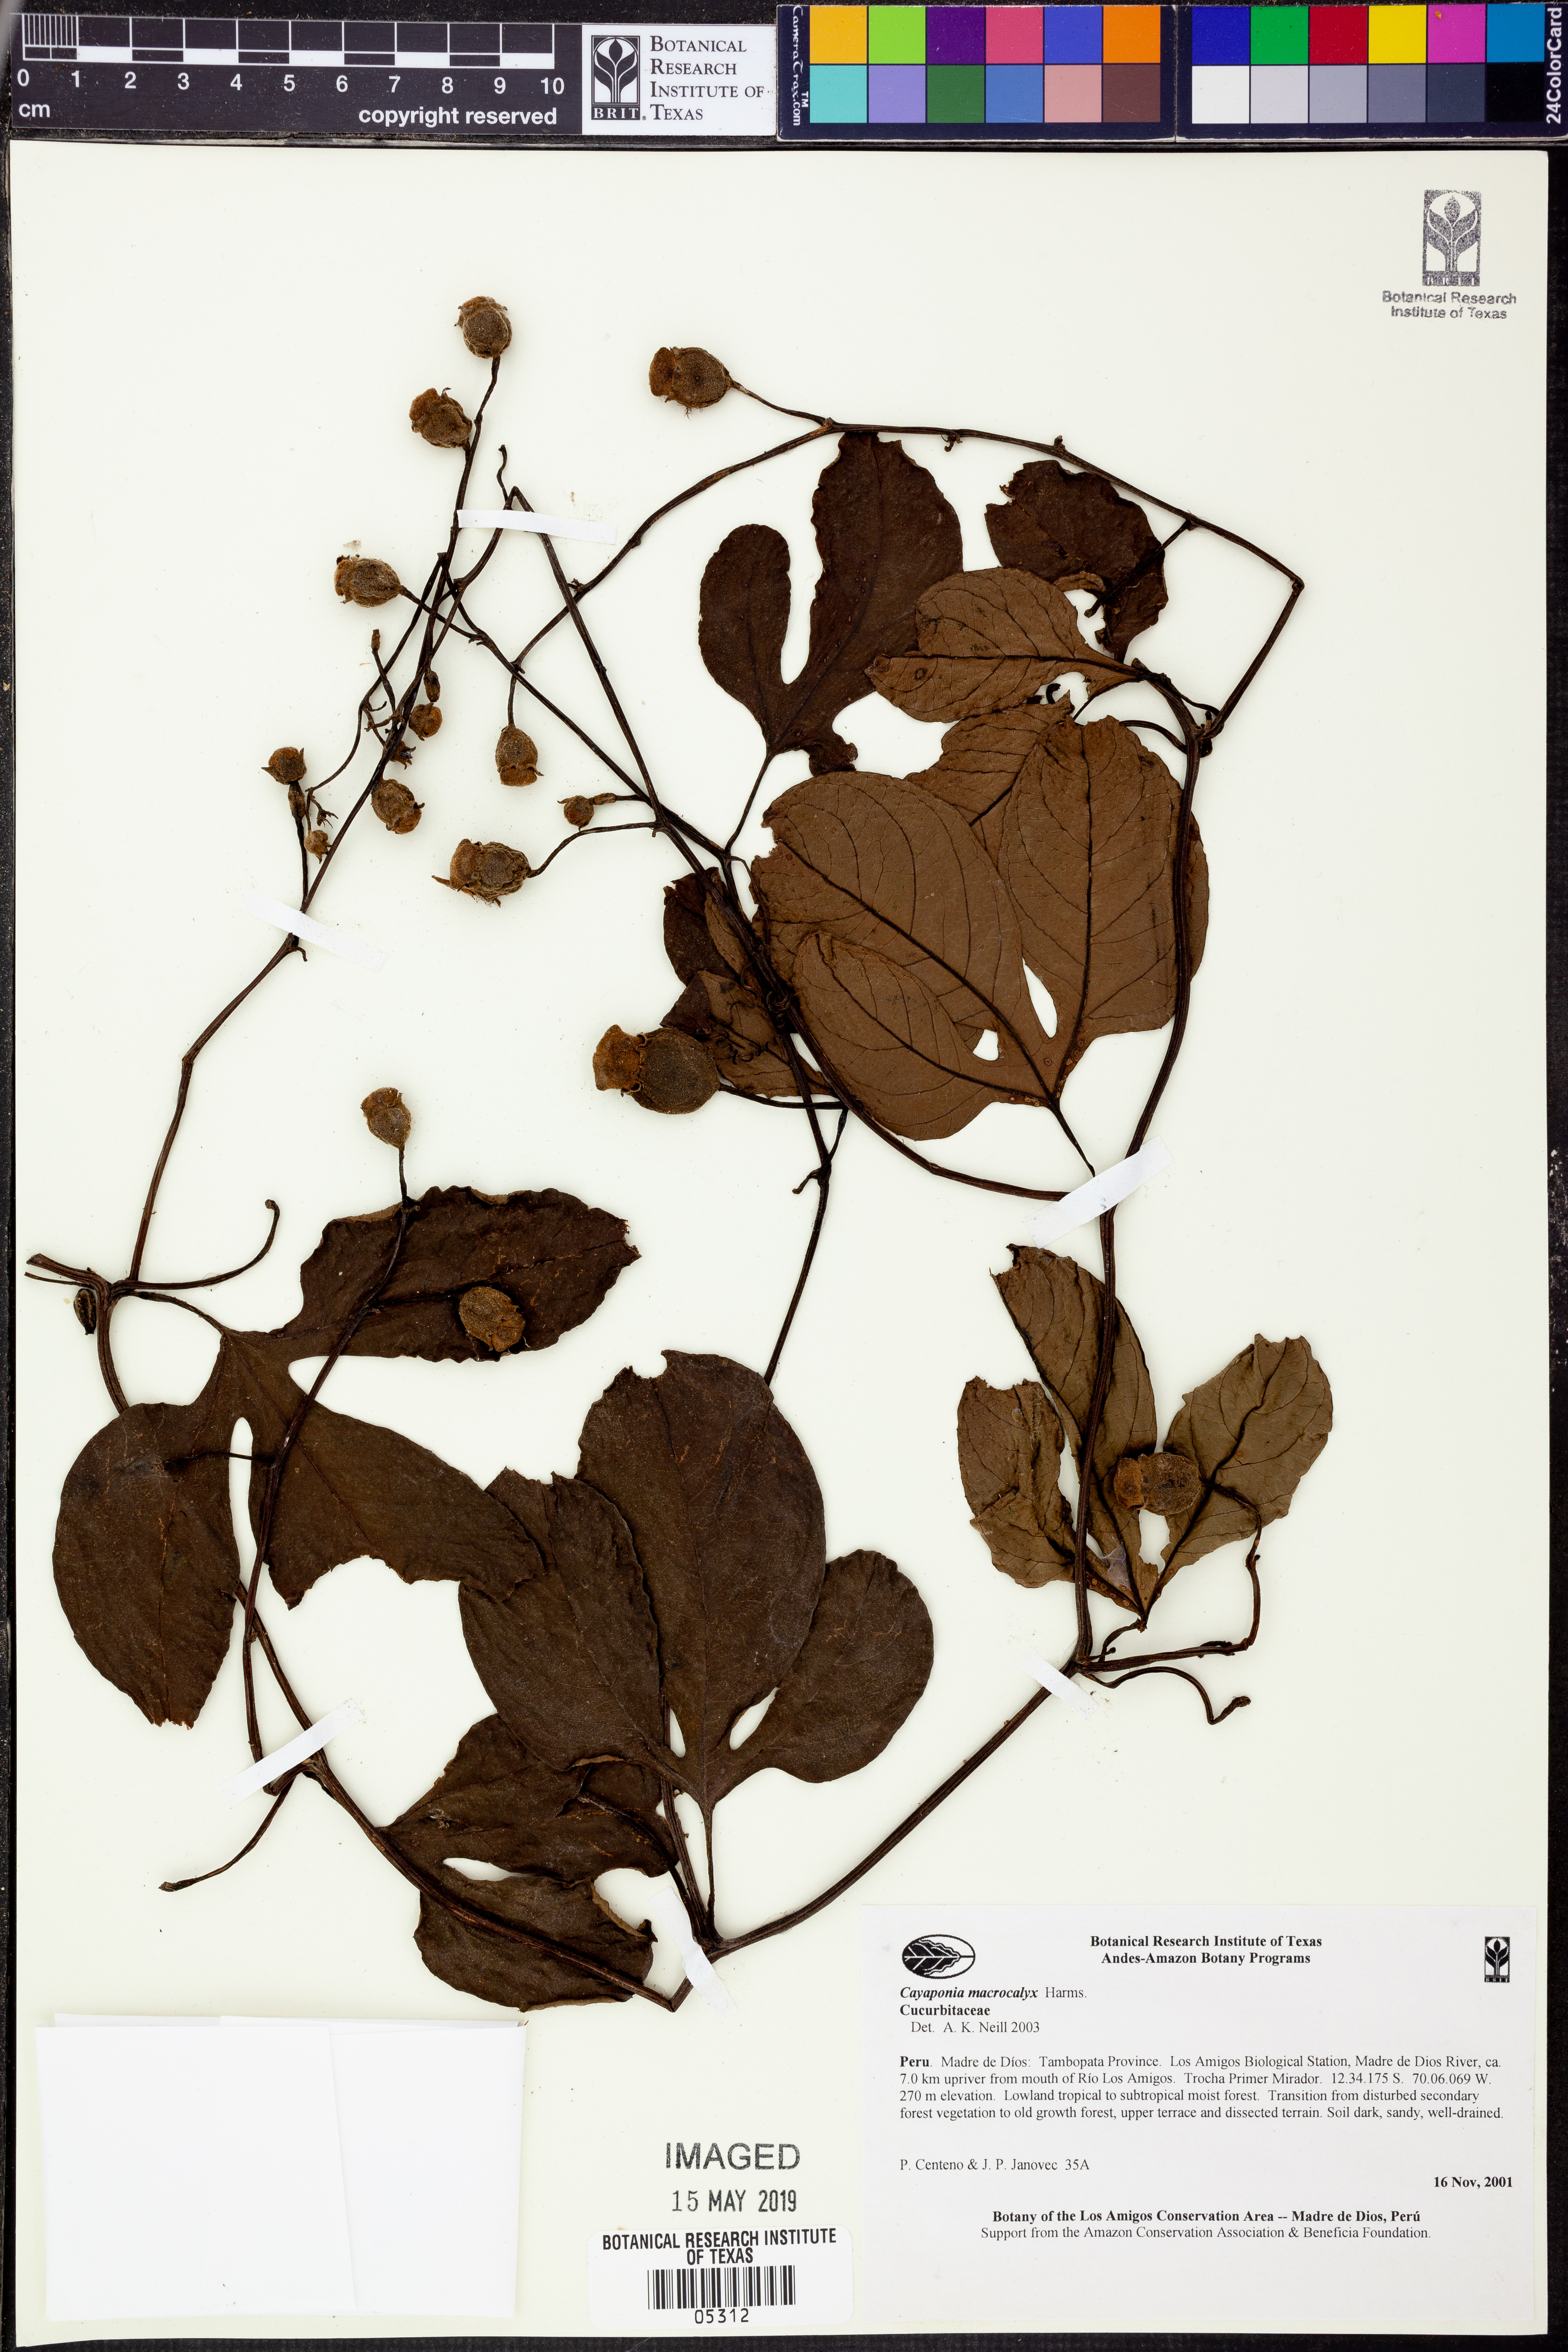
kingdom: Plantae
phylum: Tracheophyta
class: Magnoliopsida
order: Cucurbitales
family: Cucurbitaceae
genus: Cayaponia
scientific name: Cayaponia
